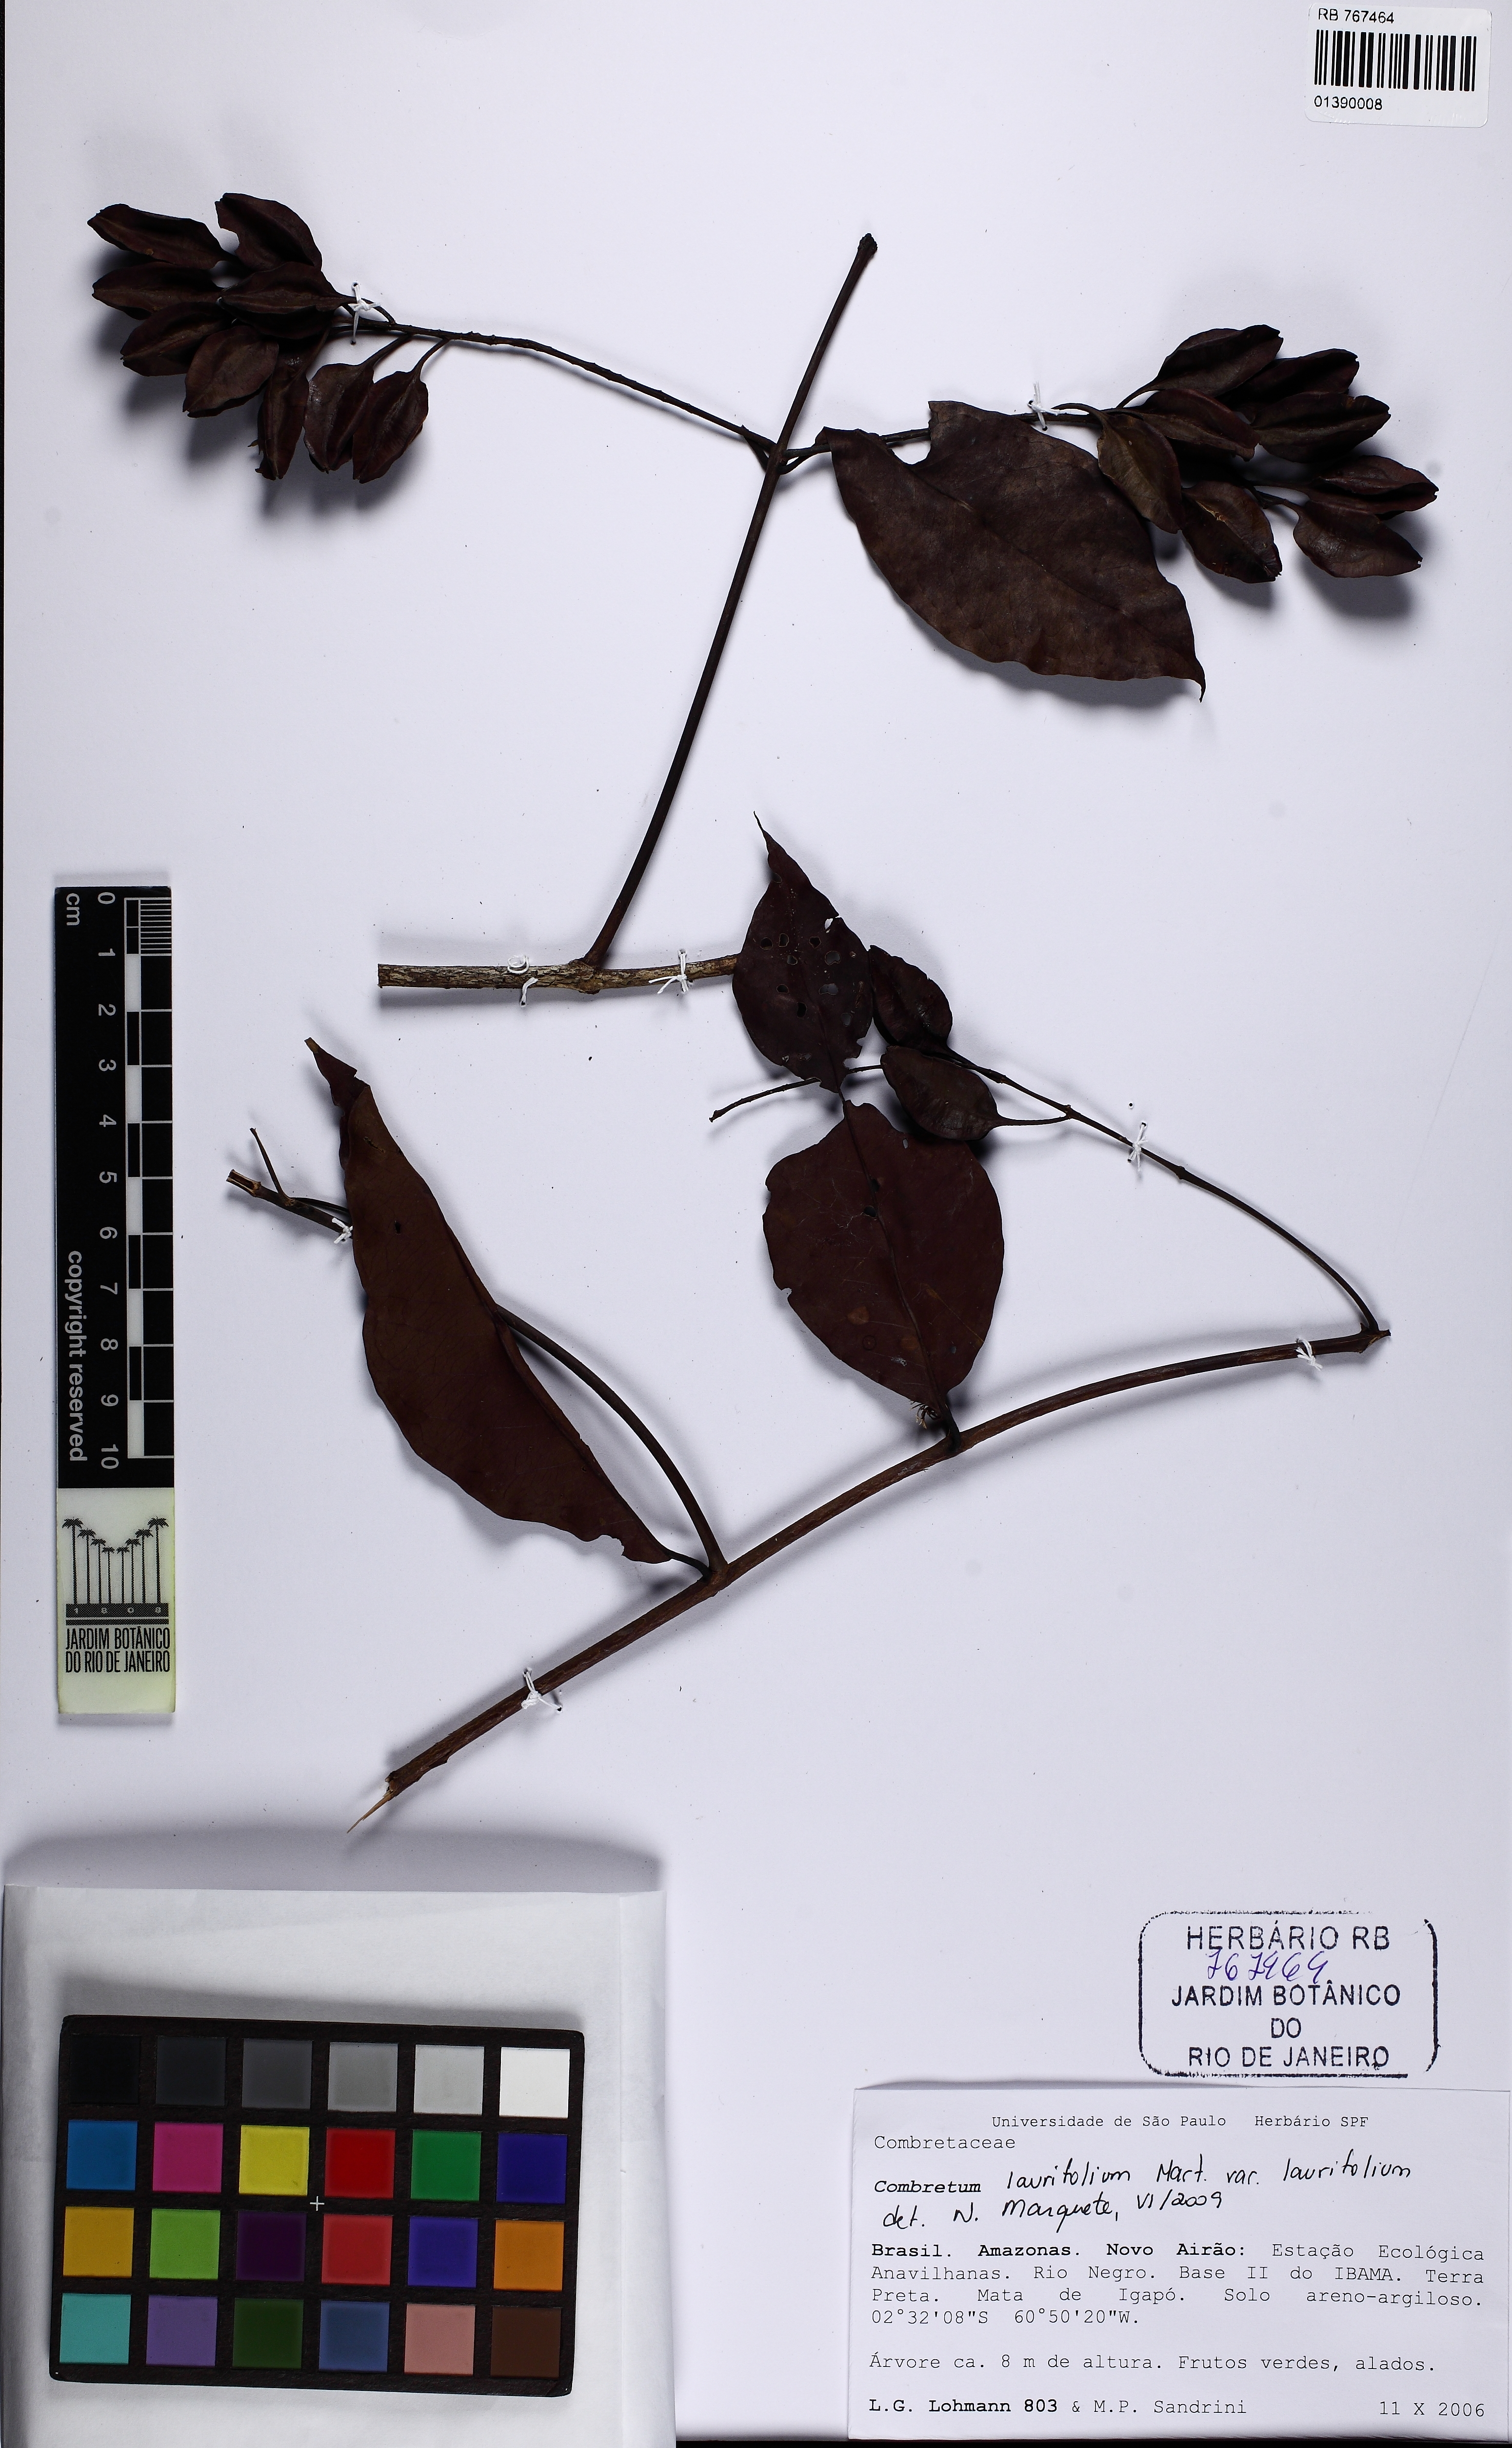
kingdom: Plantae
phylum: Tracheophyta
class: Magnoliopsida
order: Myrtales
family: Combretaceae
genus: Combretum
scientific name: Combretum laurifolium
